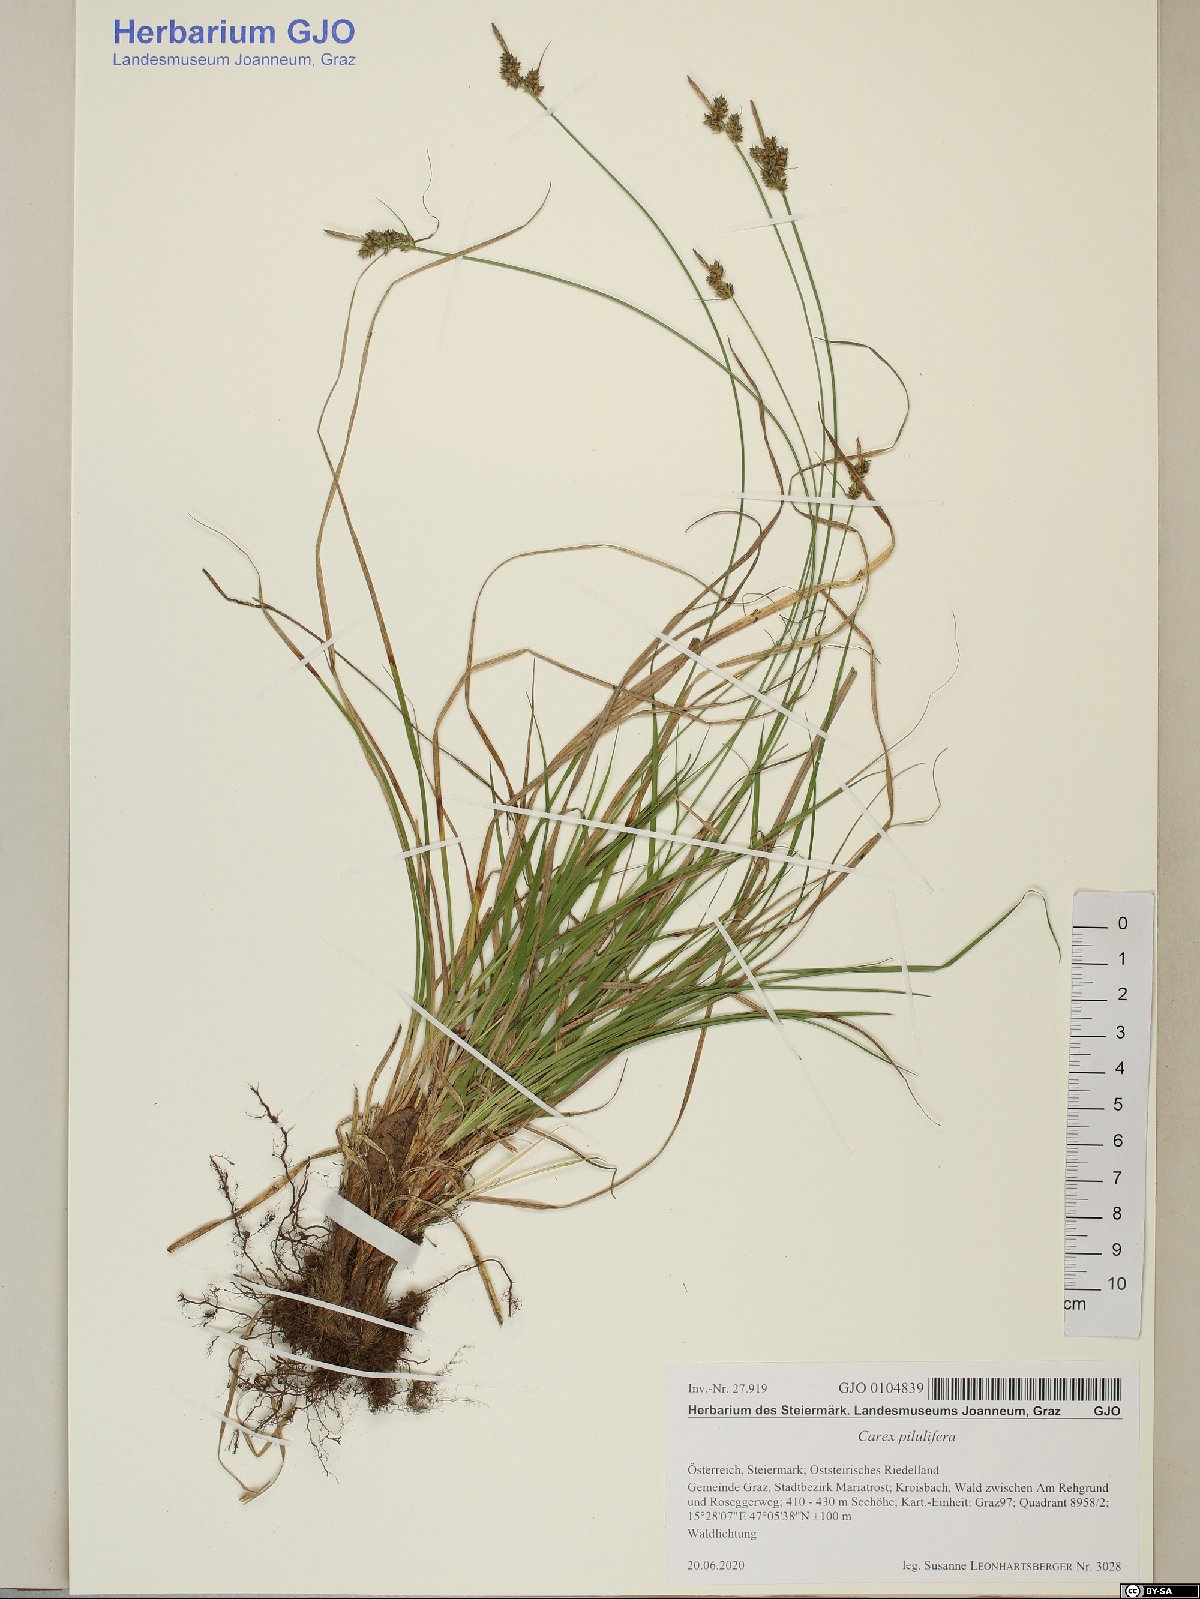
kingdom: Plantae
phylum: Tracheophyta
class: Liliopsida
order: Poales
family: Cyperaceae
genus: Carex
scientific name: Carex pilulifera
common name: Pill sedge
